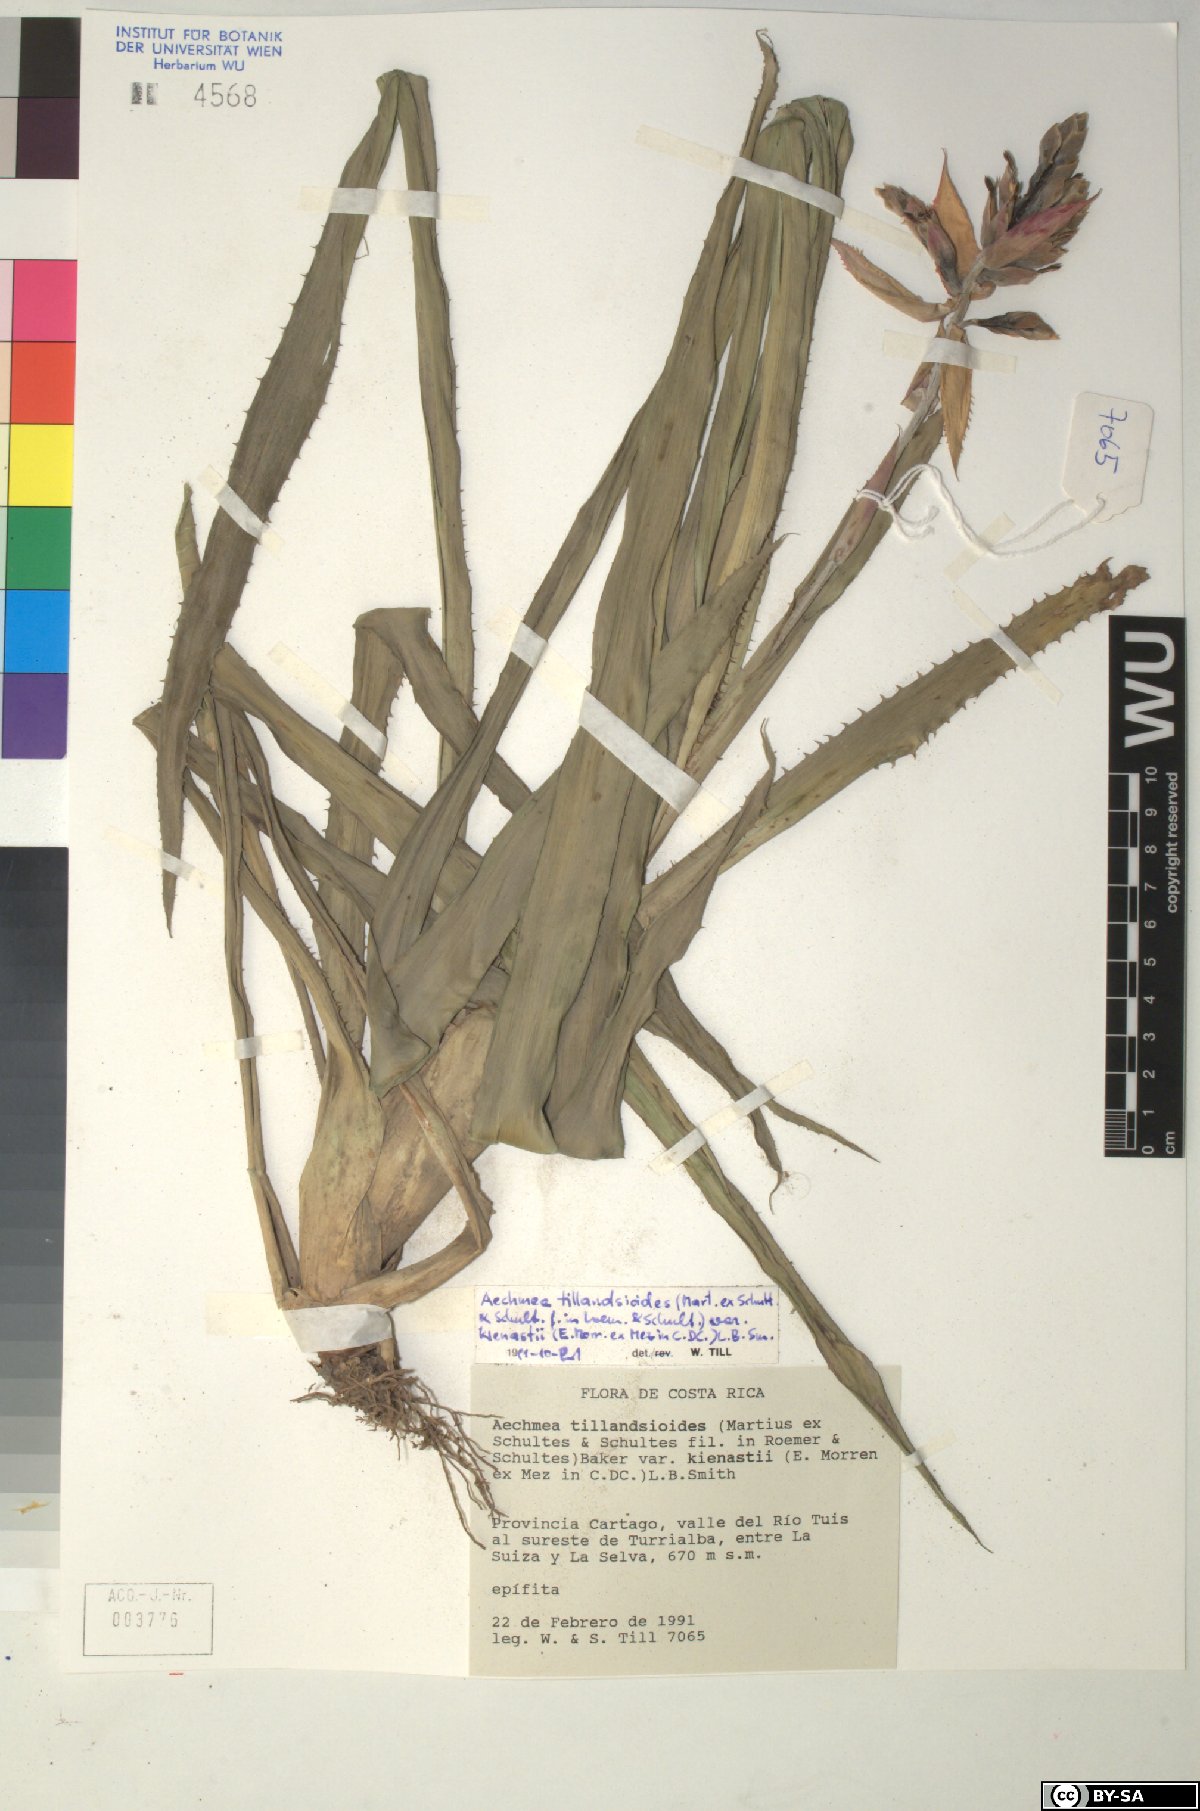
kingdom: Plantae
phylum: Tracheophyta
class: Liliopsida
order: Poales
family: Bromeliaceae
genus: Aechmea
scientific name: Aechmea tillandsioides
